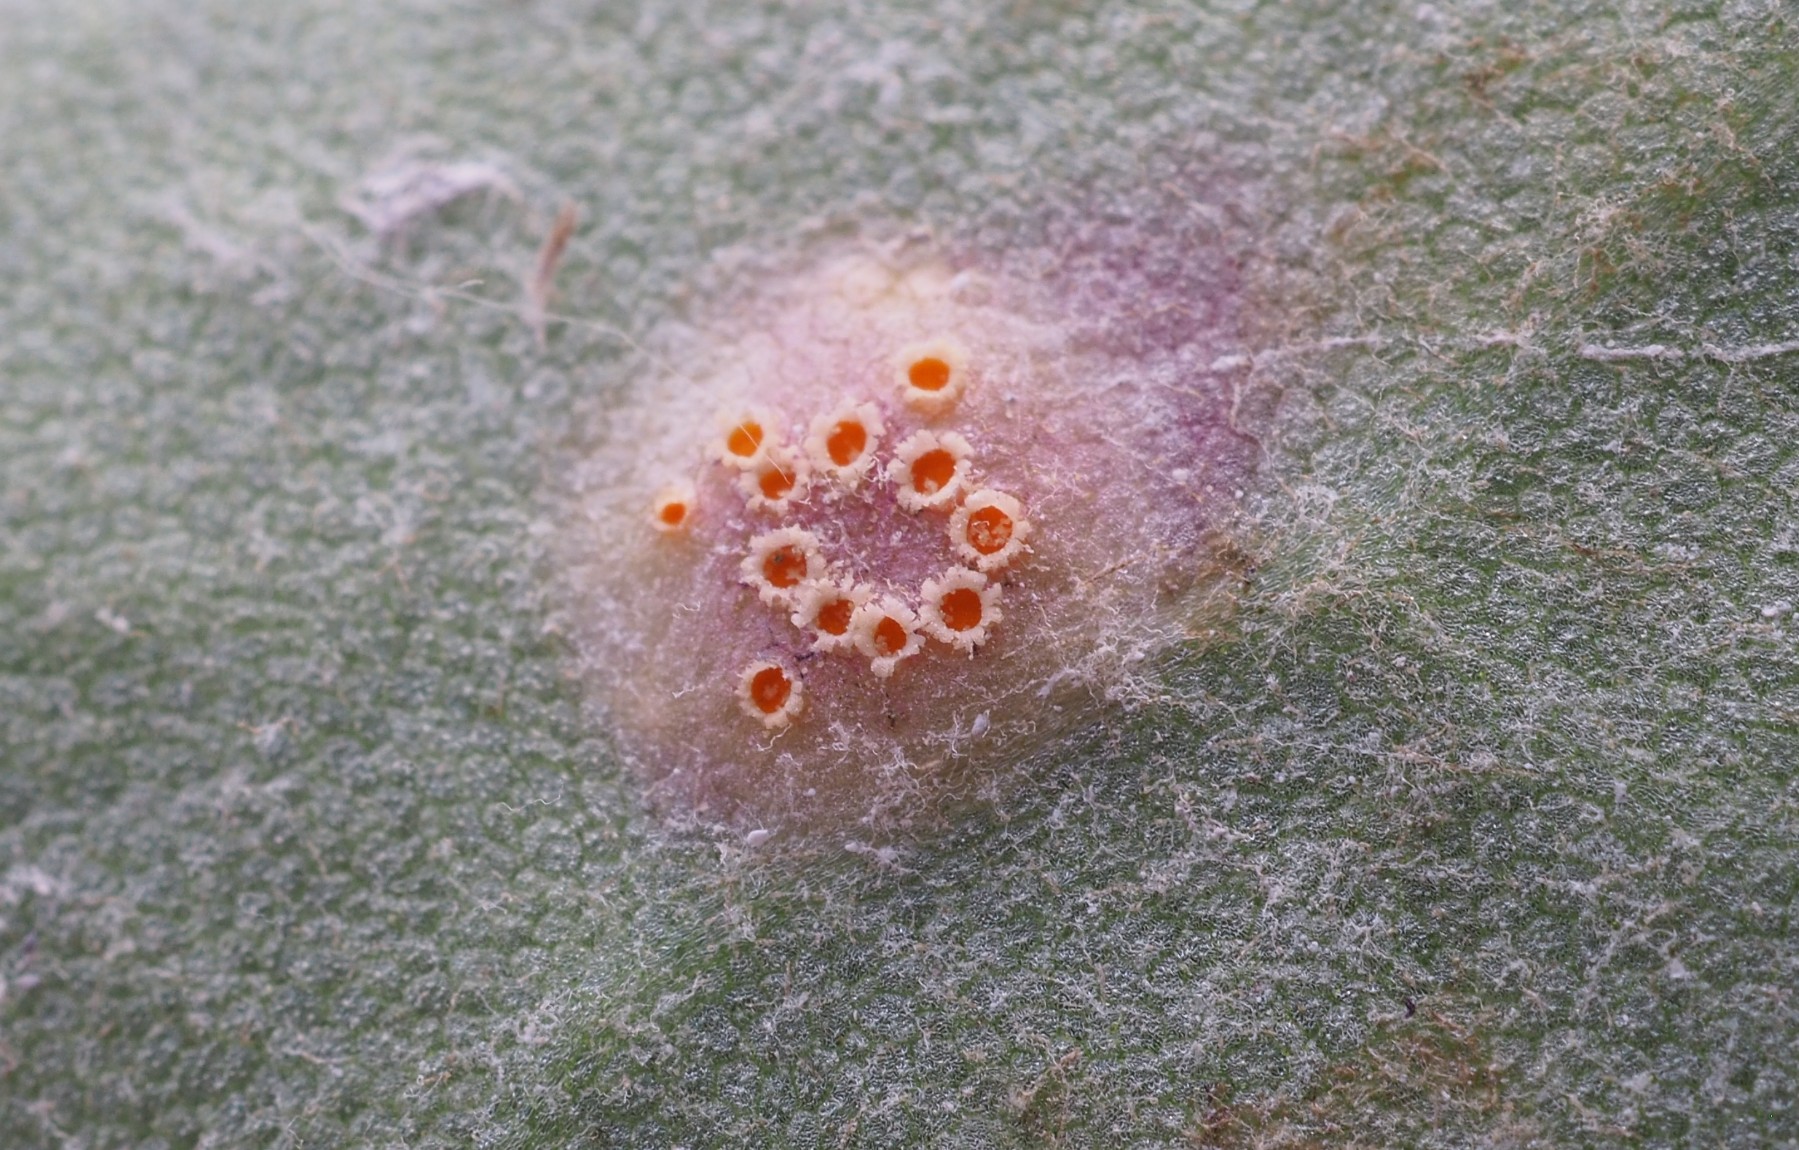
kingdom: Fungi
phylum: Basidiomycota
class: Pucciniomycetes
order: Pucciniales
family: Pucciniaceae
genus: Puccinia
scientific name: Puccinia poarum
